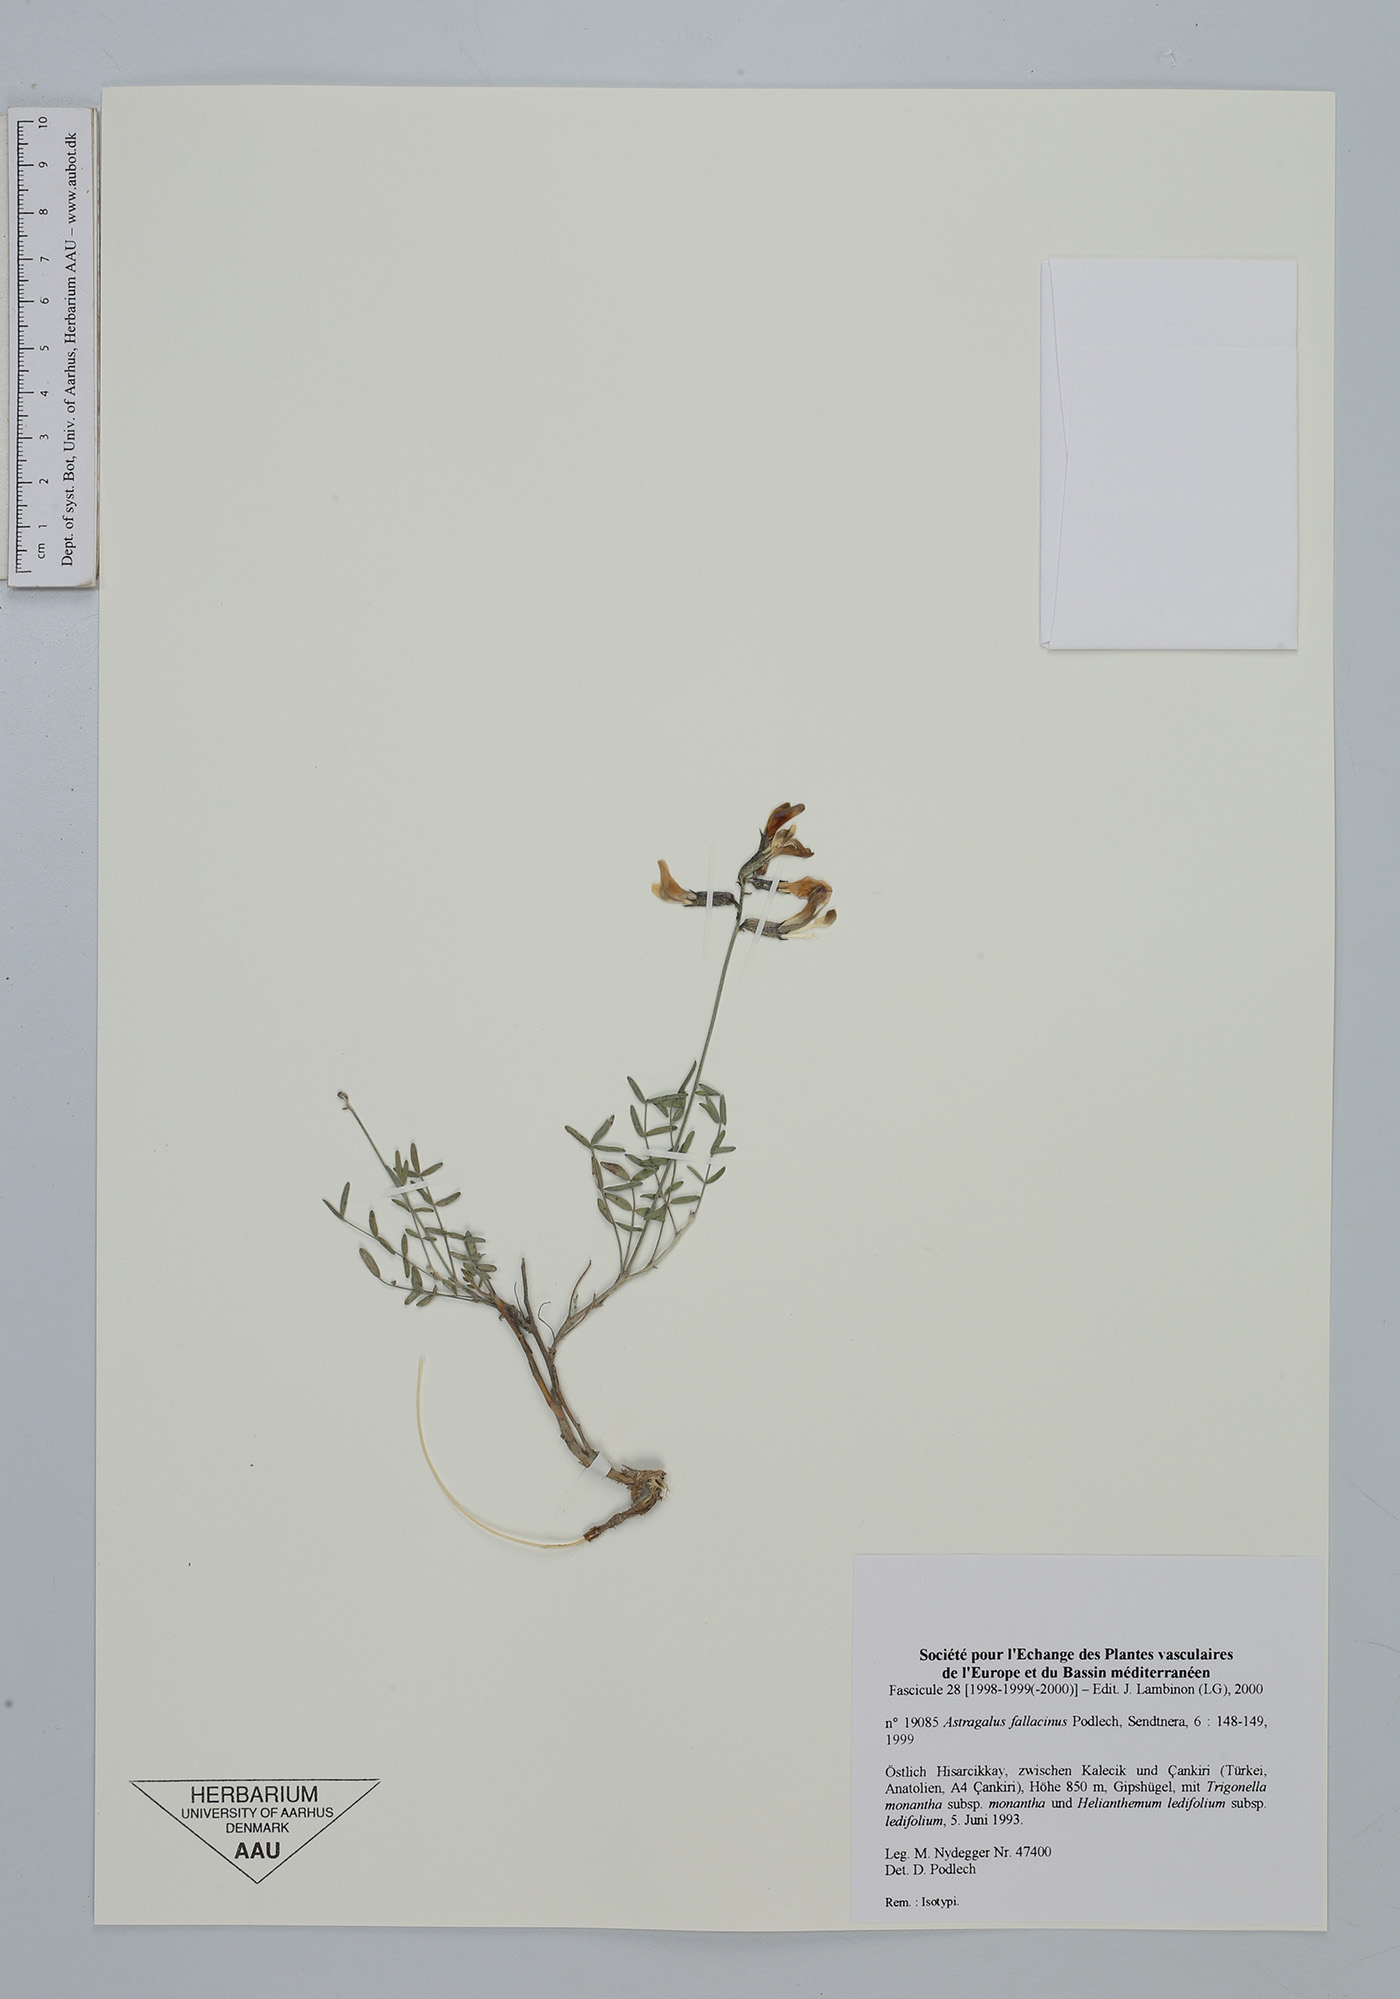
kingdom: Plantae
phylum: Tracheophyta
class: Magnoliopsida
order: Fabales
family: Fabaceae
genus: Astragalus
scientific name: Astragalus fallacinus
